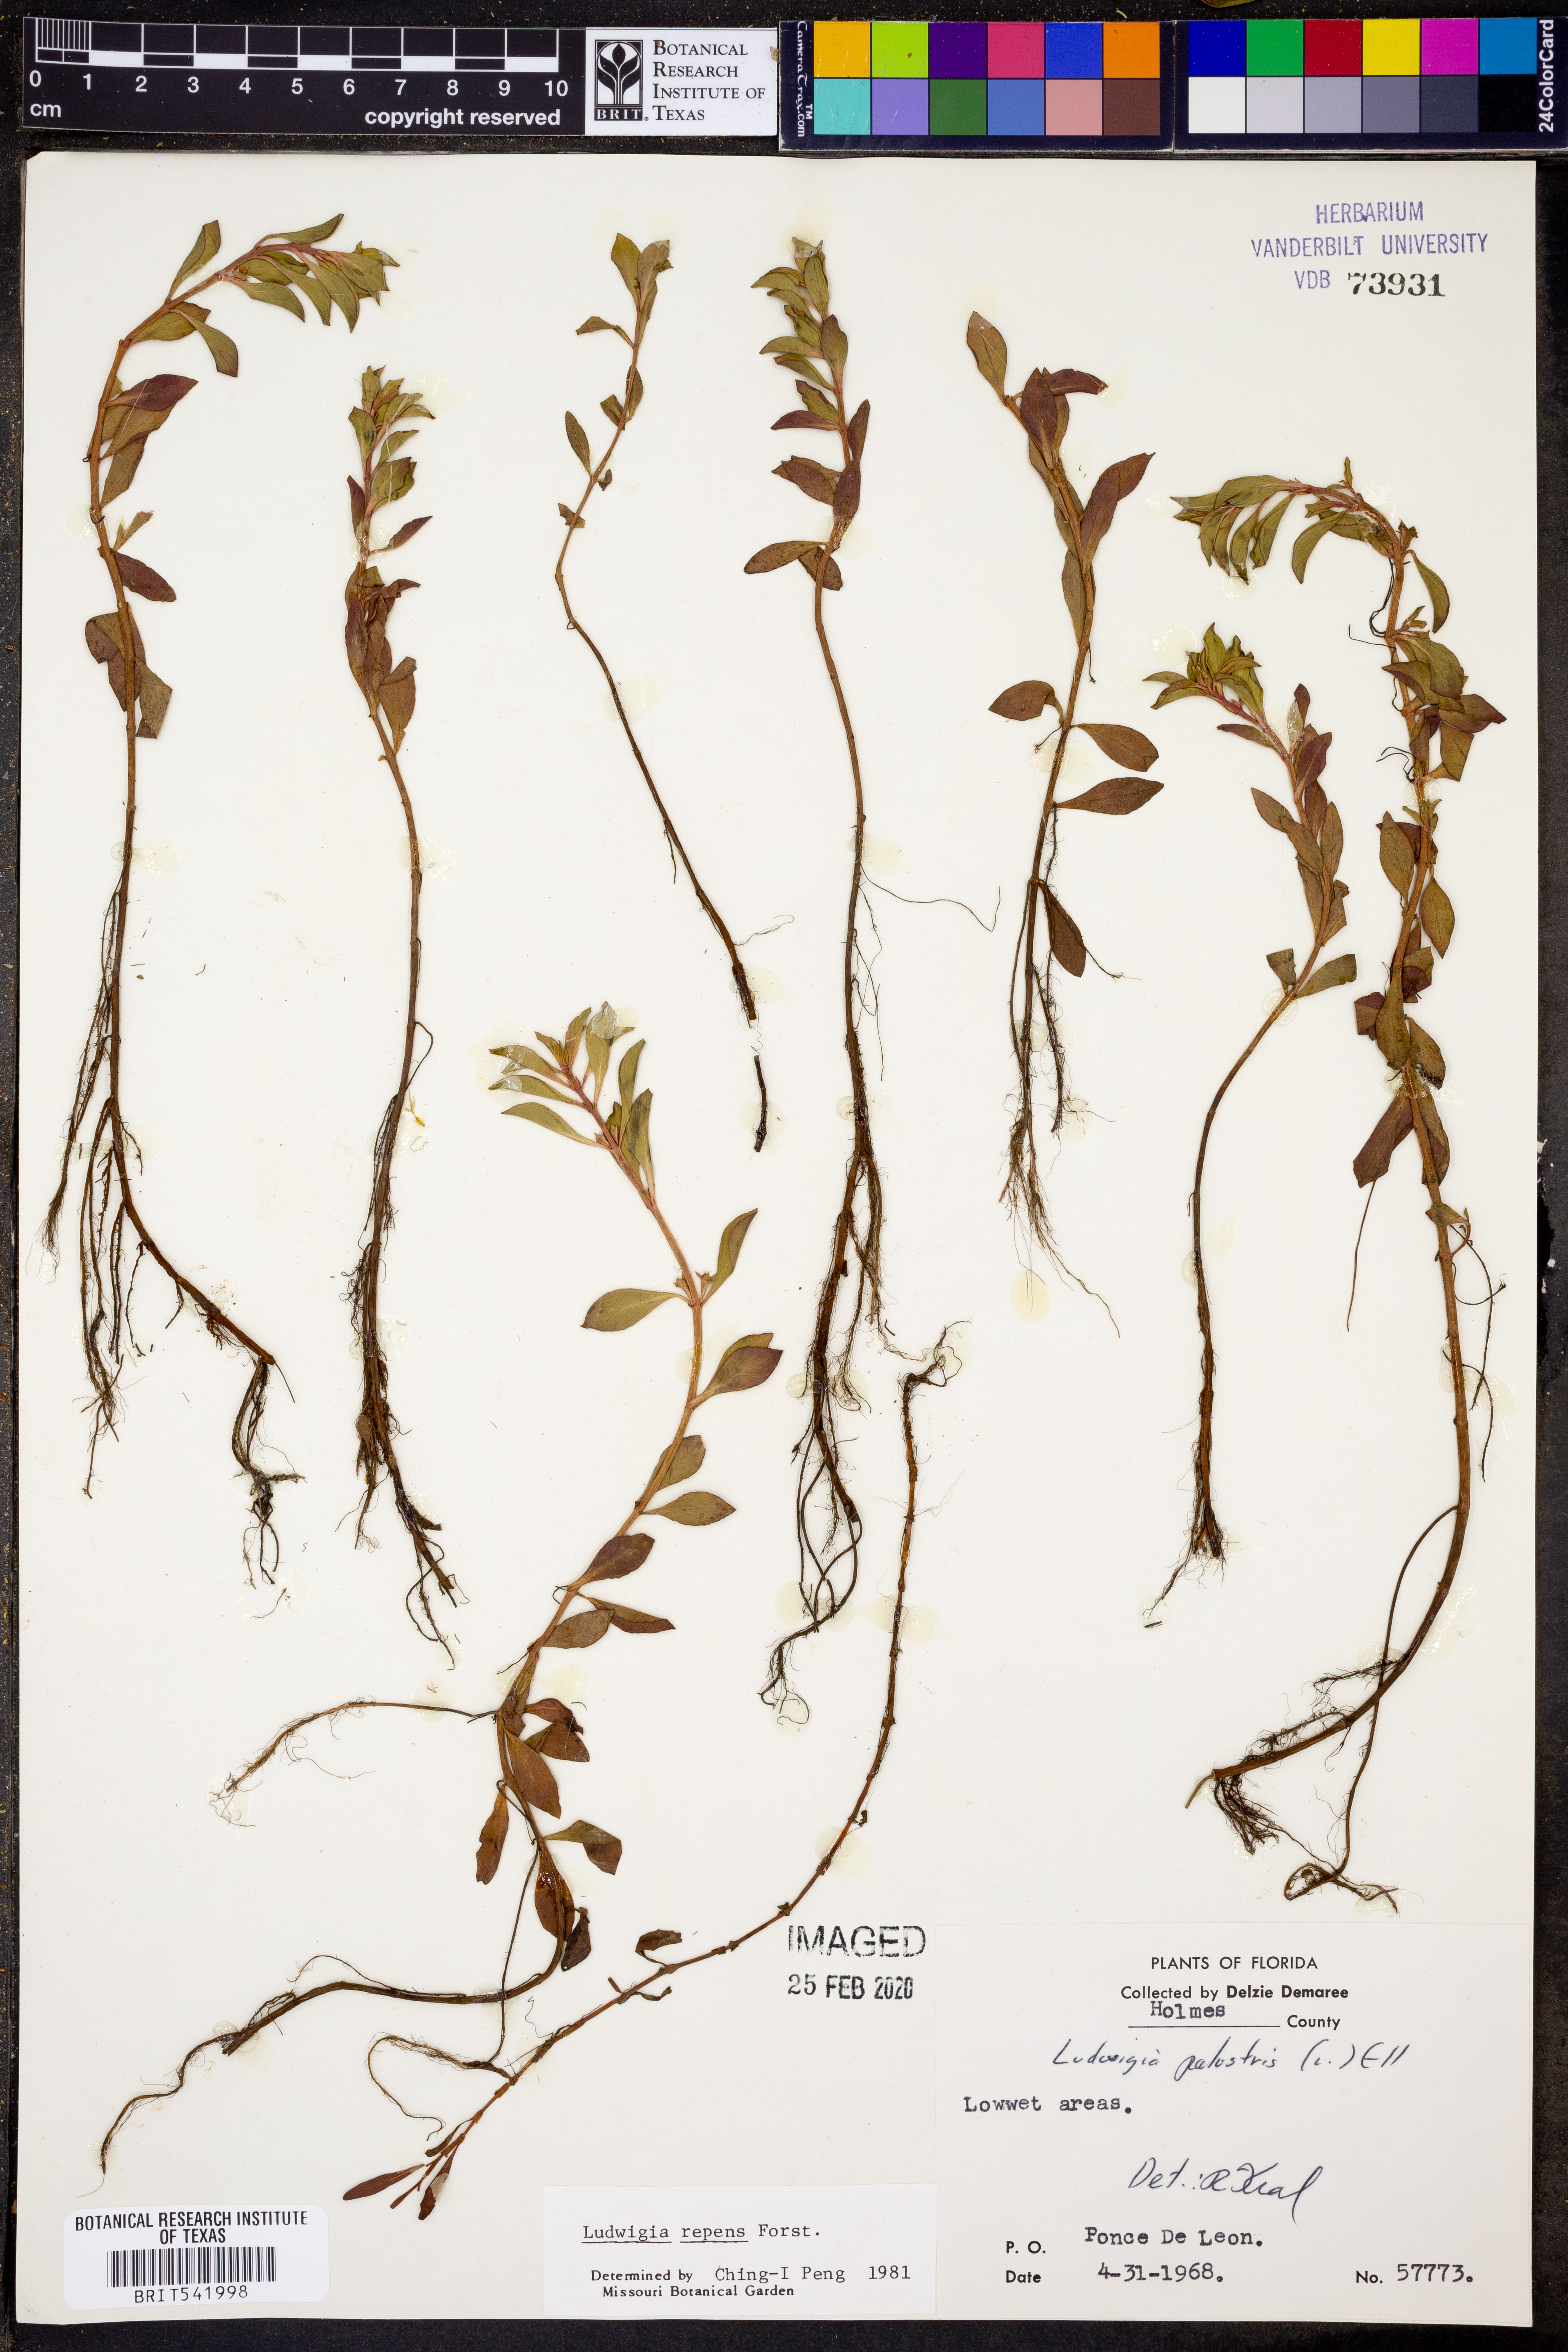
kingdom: Plantae
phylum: Tracheophyta
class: Magnoliopsida
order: Myrtales
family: Onagraceae
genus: Ludwigia
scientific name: Ludwigia repens
